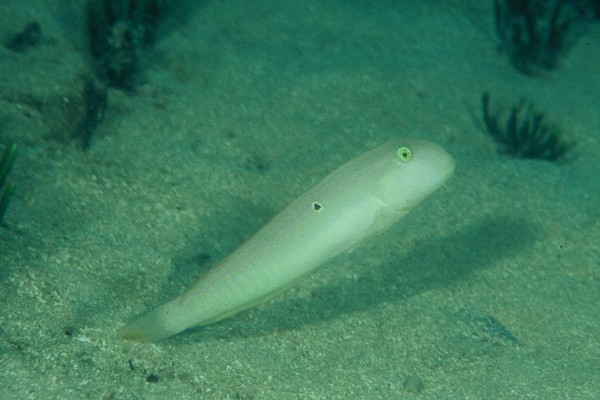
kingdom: Animalia
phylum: Chordata
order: Perciformes
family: Labridae
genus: Cymolutes
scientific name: Cymolutes praetextatus
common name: Knife razorfish
